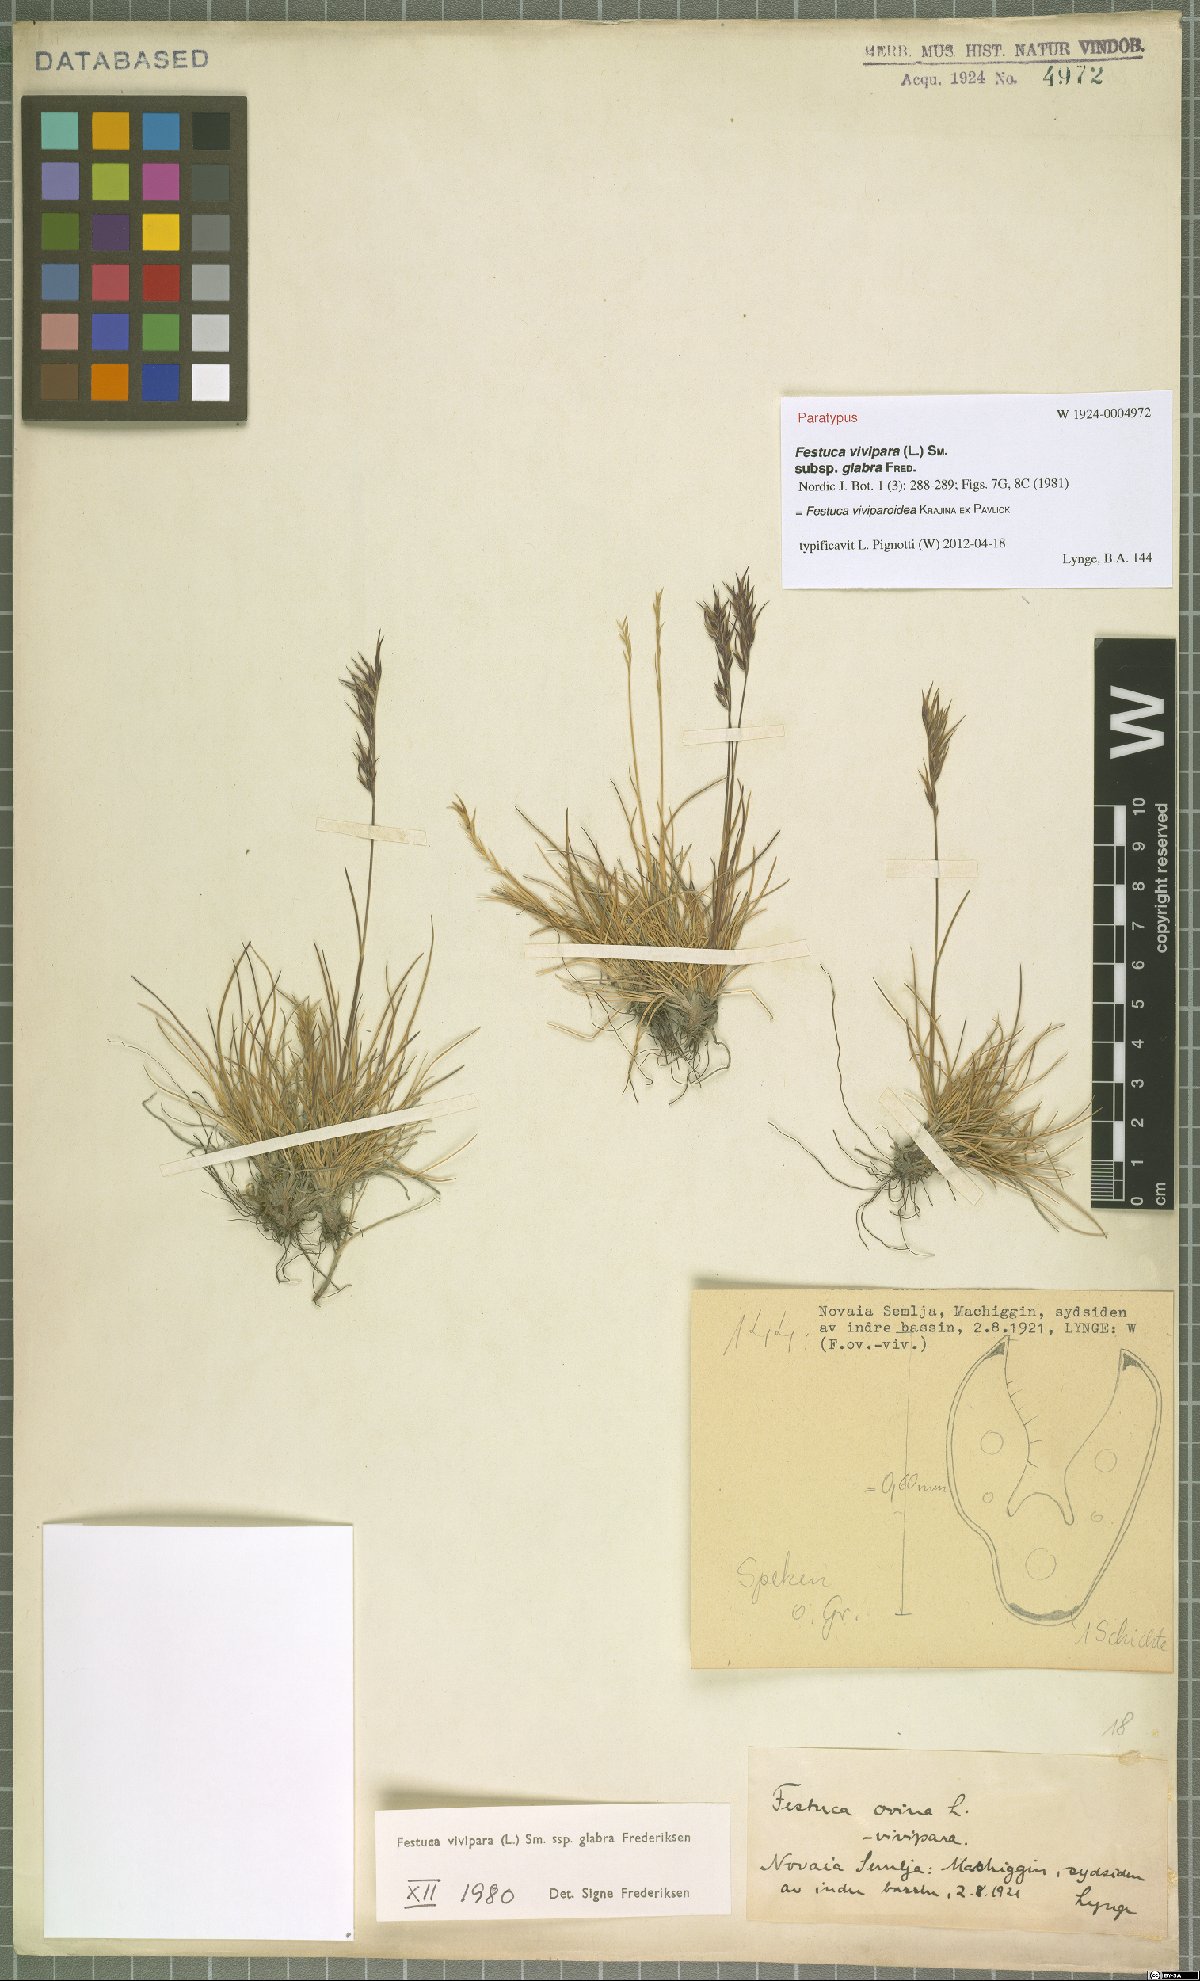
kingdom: Plantae
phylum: Tracheophyta
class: Liliopsida
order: Poales
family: Poaceae
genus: Festuca
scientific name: Festuca viviparoidea
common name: Northern fescue
